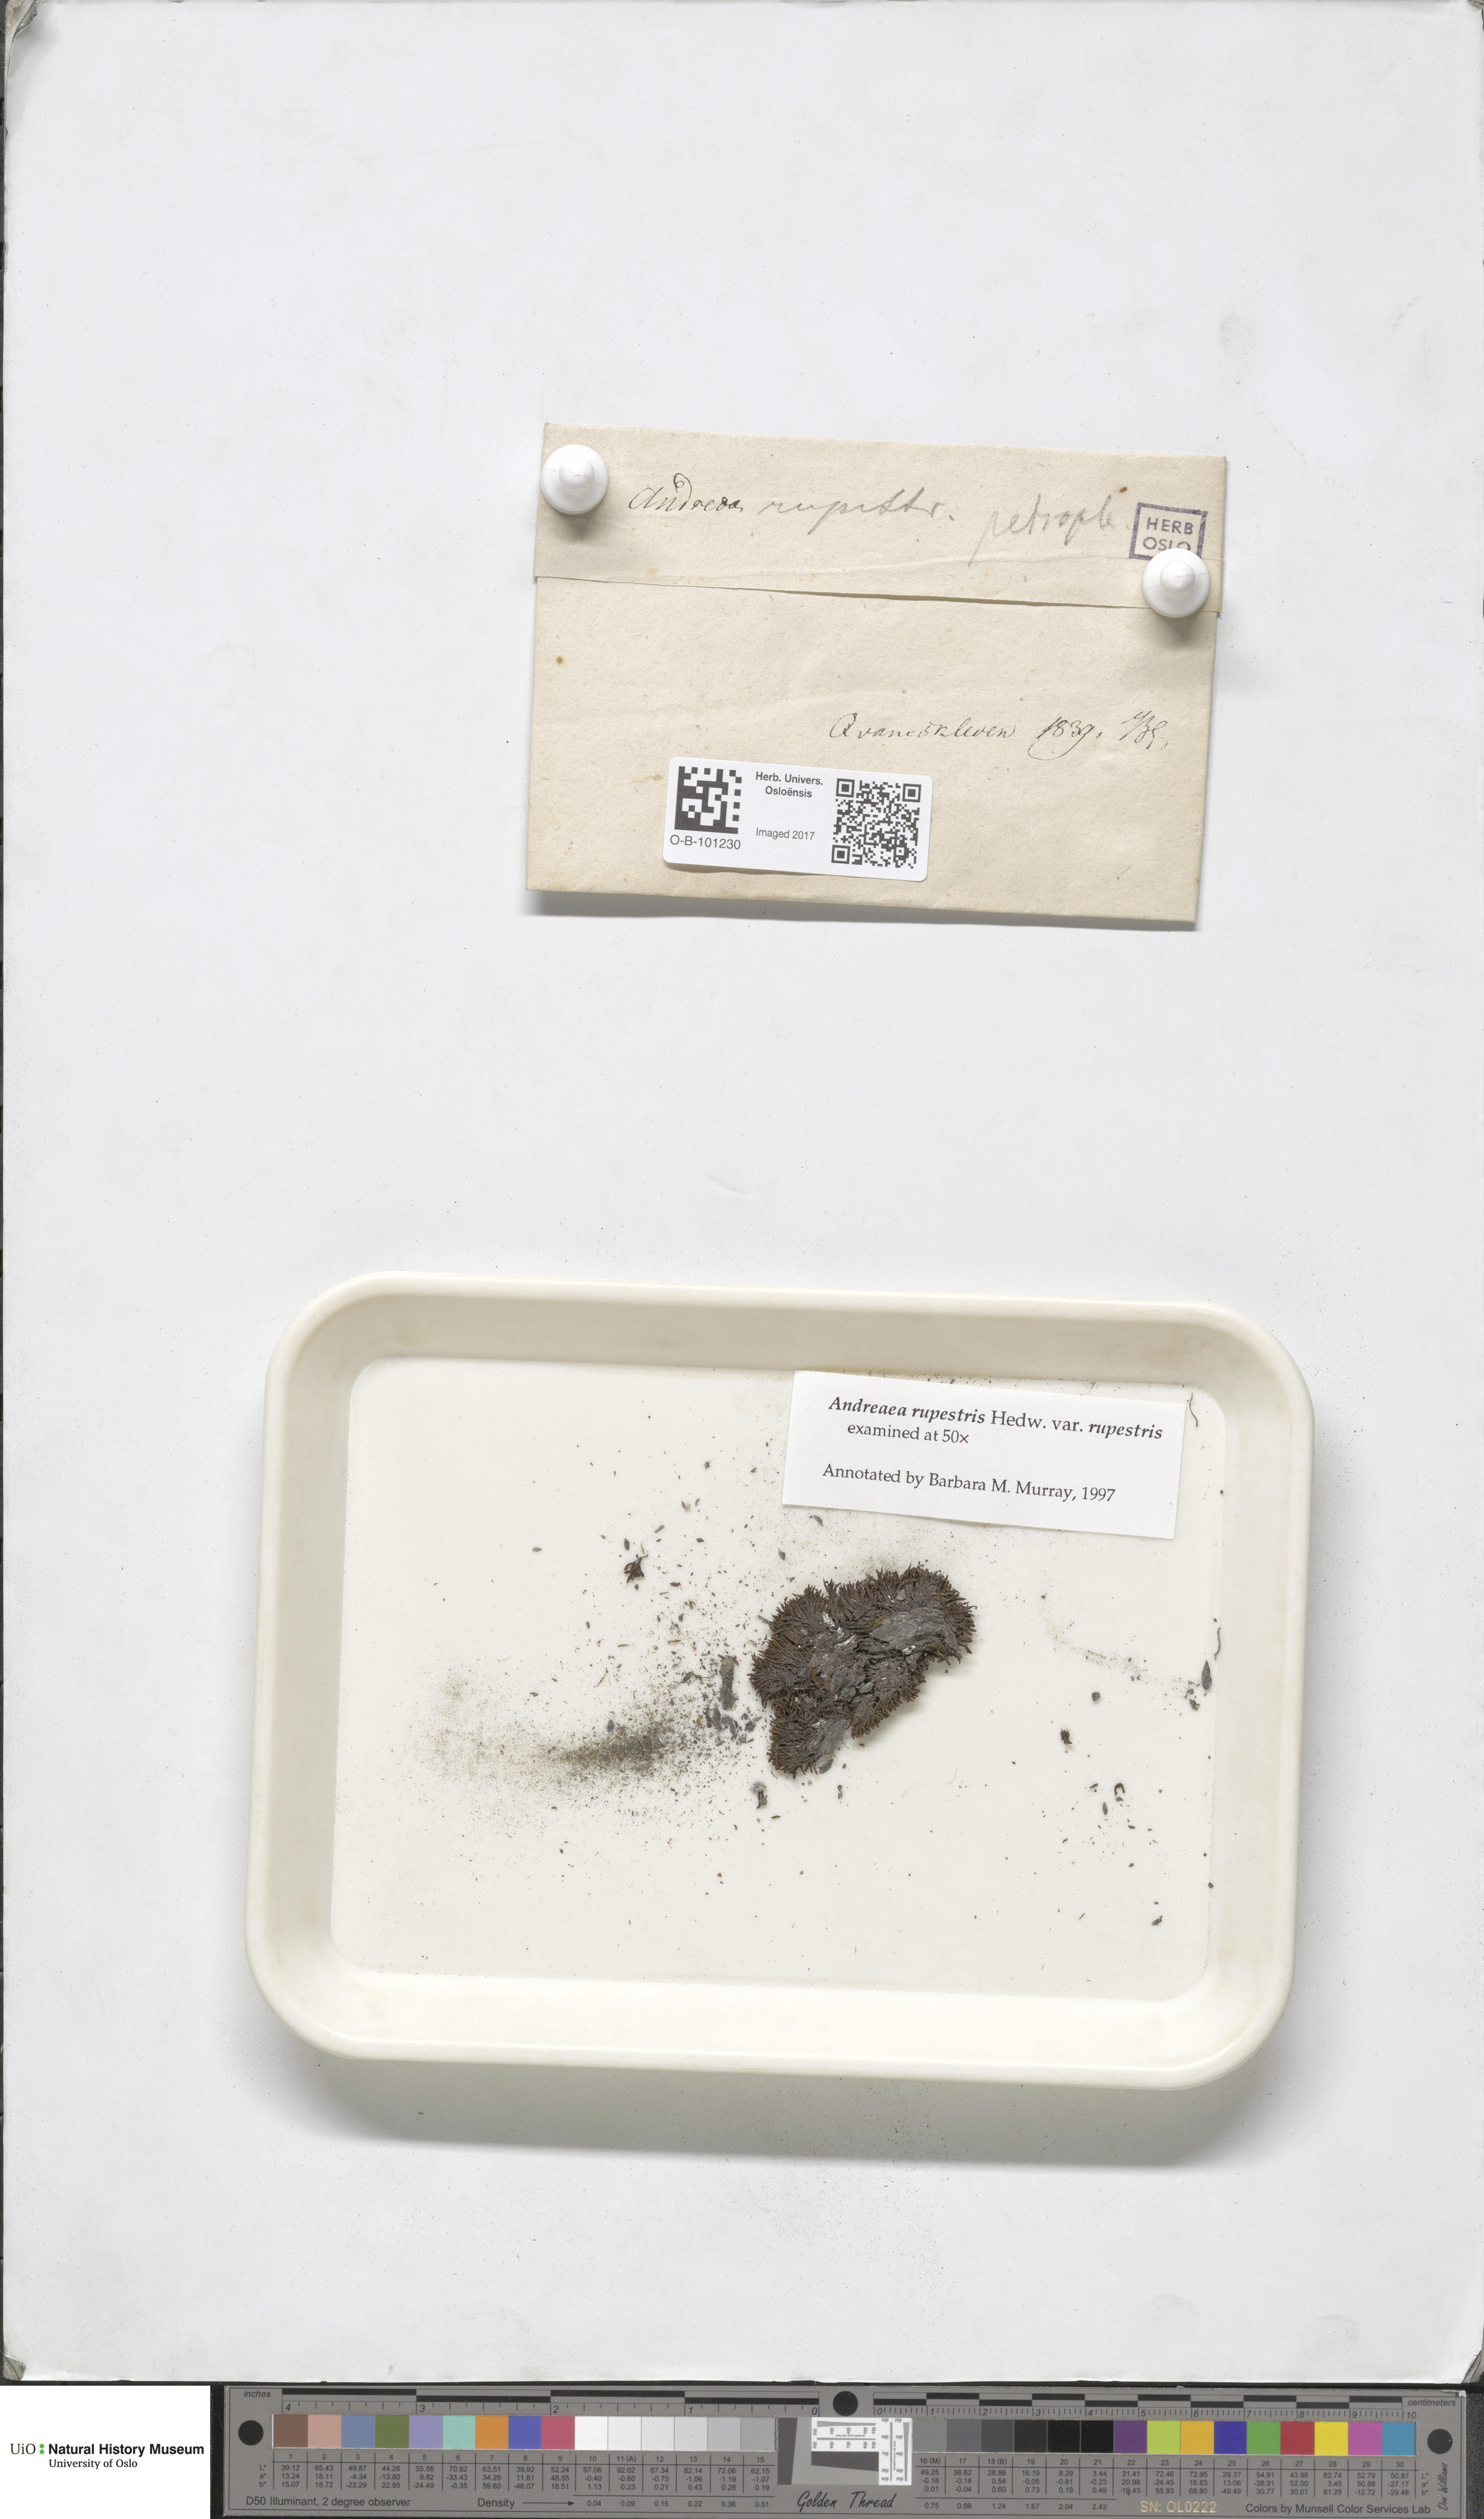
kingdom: Plantae
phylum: Bryophyta
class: Andreaeopsida
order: Andreaeales
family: Andreaeaceae
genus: Andreaea
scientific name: Andreaea rupestris
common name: Black rock moss
